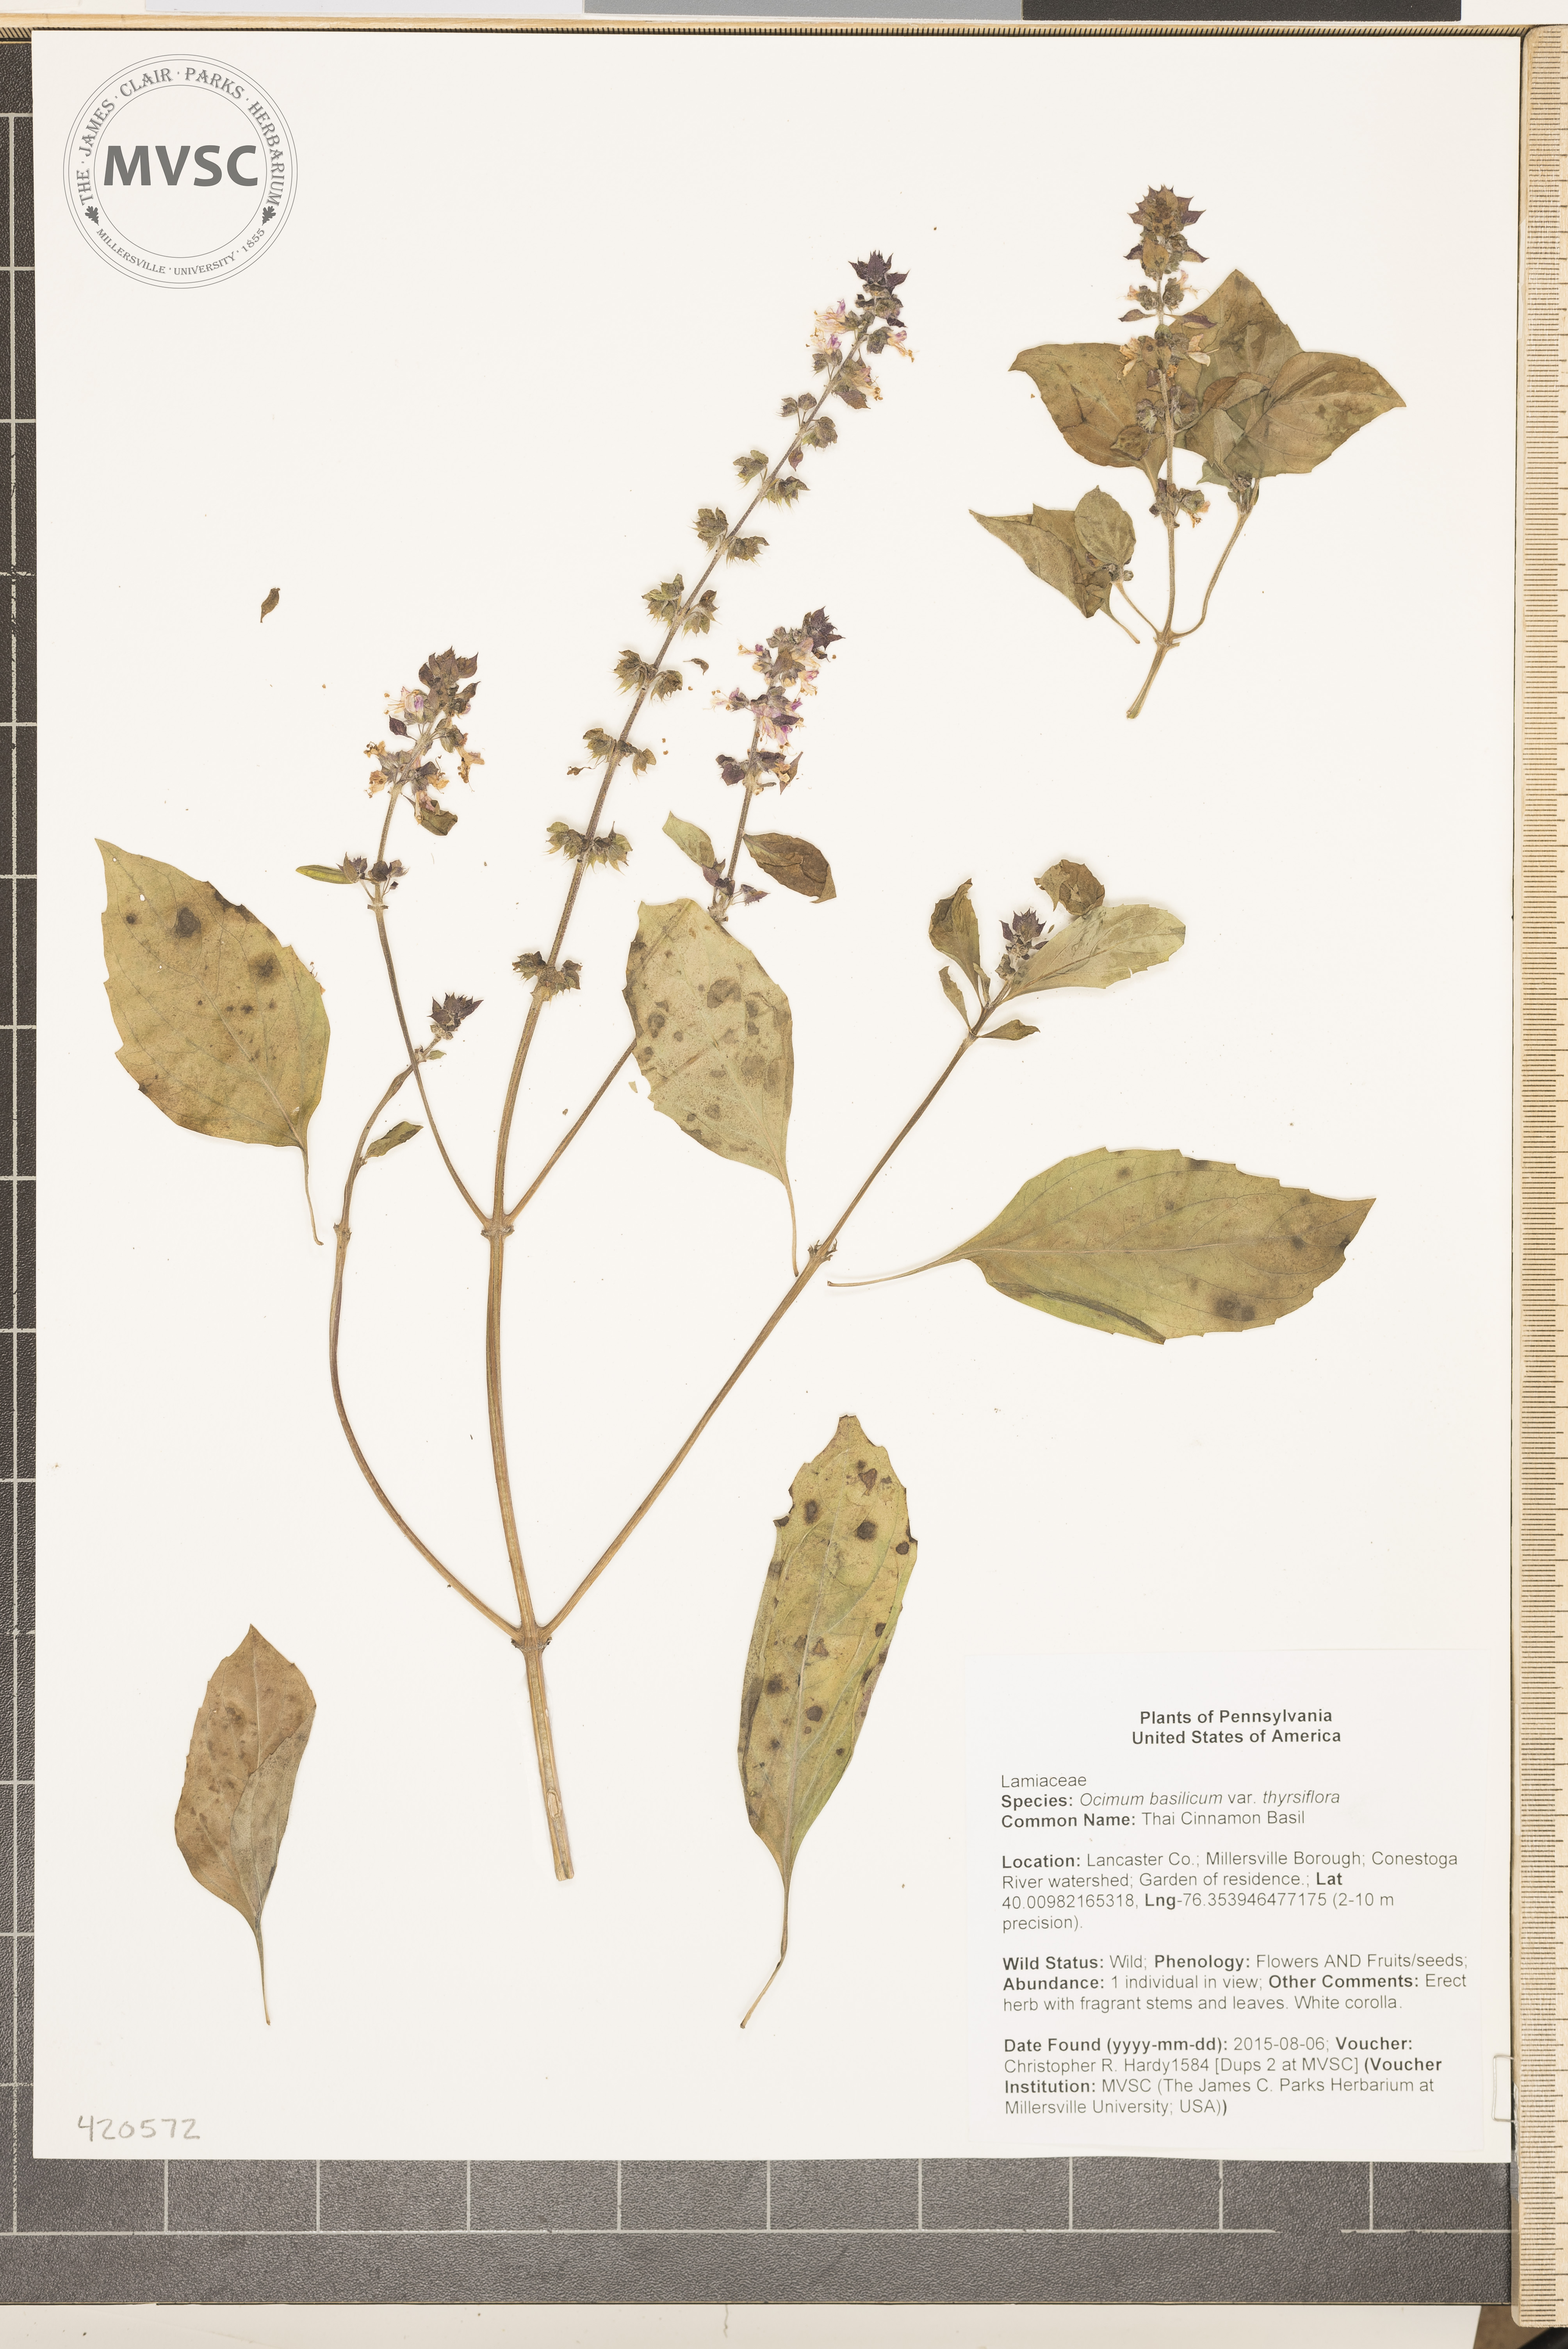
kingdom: Plantae
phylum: Tracheophyta
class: Magnoliopsida
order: Lamiales
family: Lamiaceae
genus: Ocimum
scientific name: Ocimum basilicum
